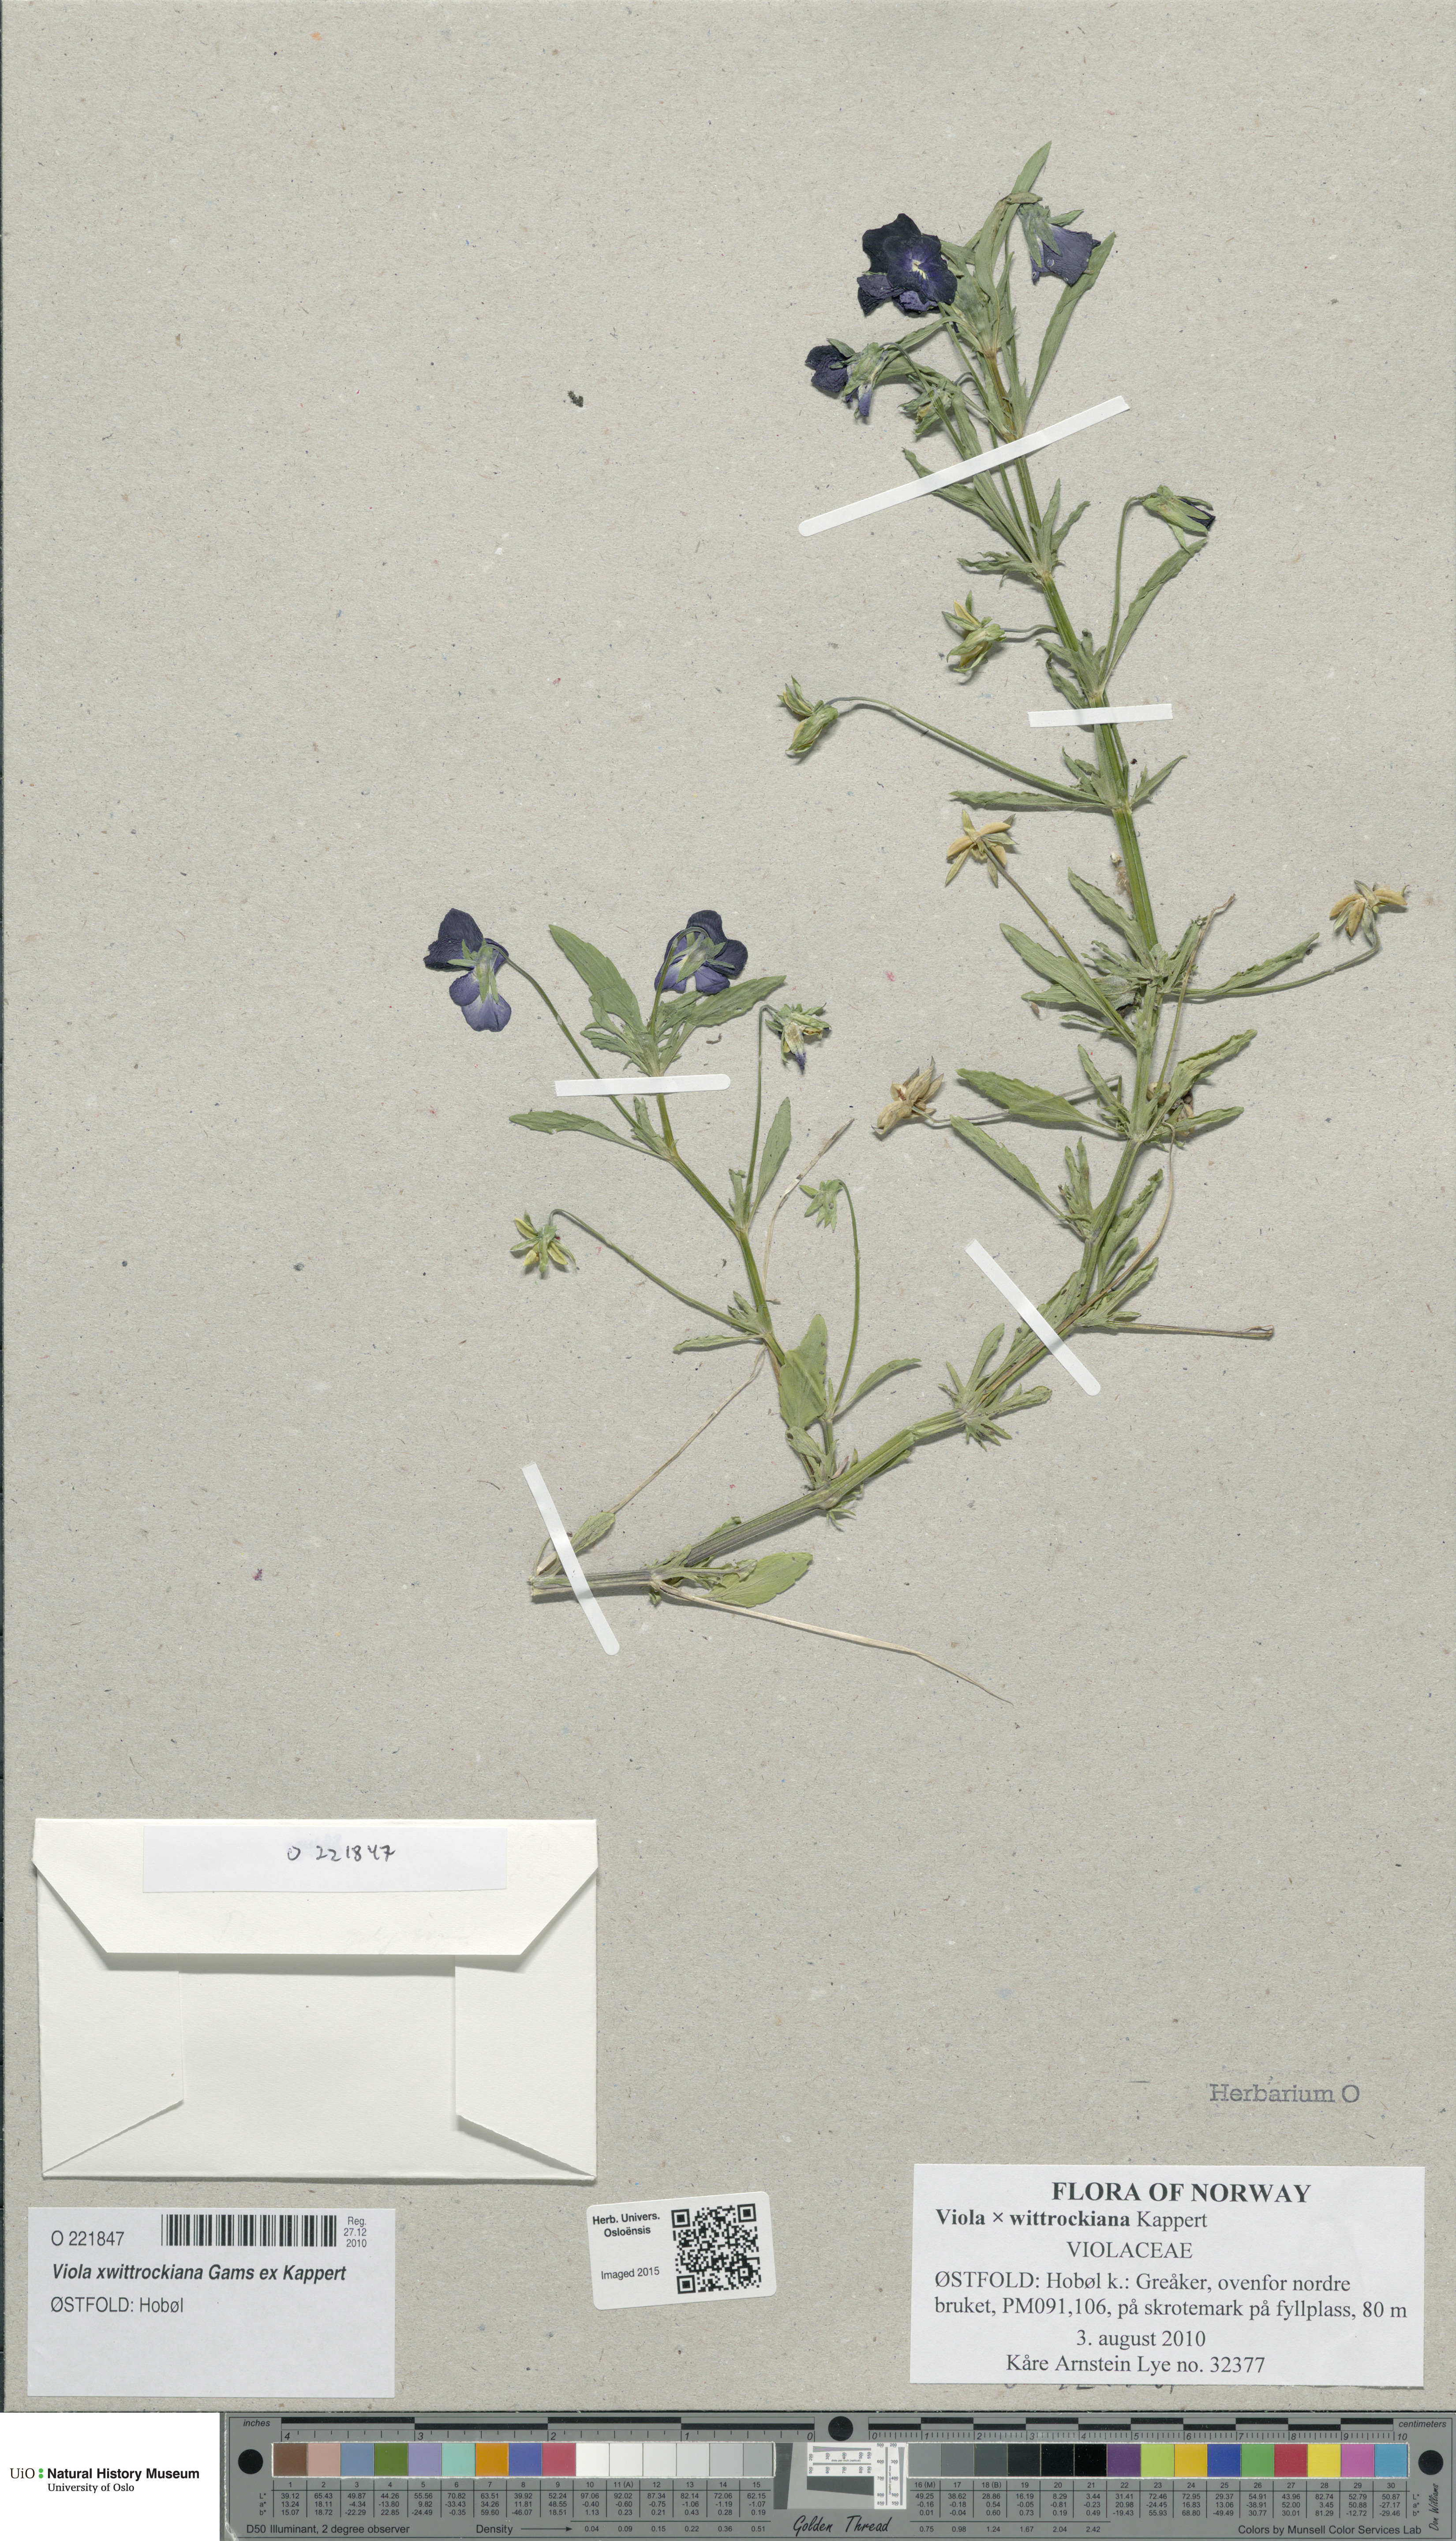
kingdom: Plantae
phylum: Tracheophyta
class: Magnoliopsida
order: Malpighiales
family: Violaceae
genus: Viola
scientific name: Viola wittrockiana
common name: Garden pansy
